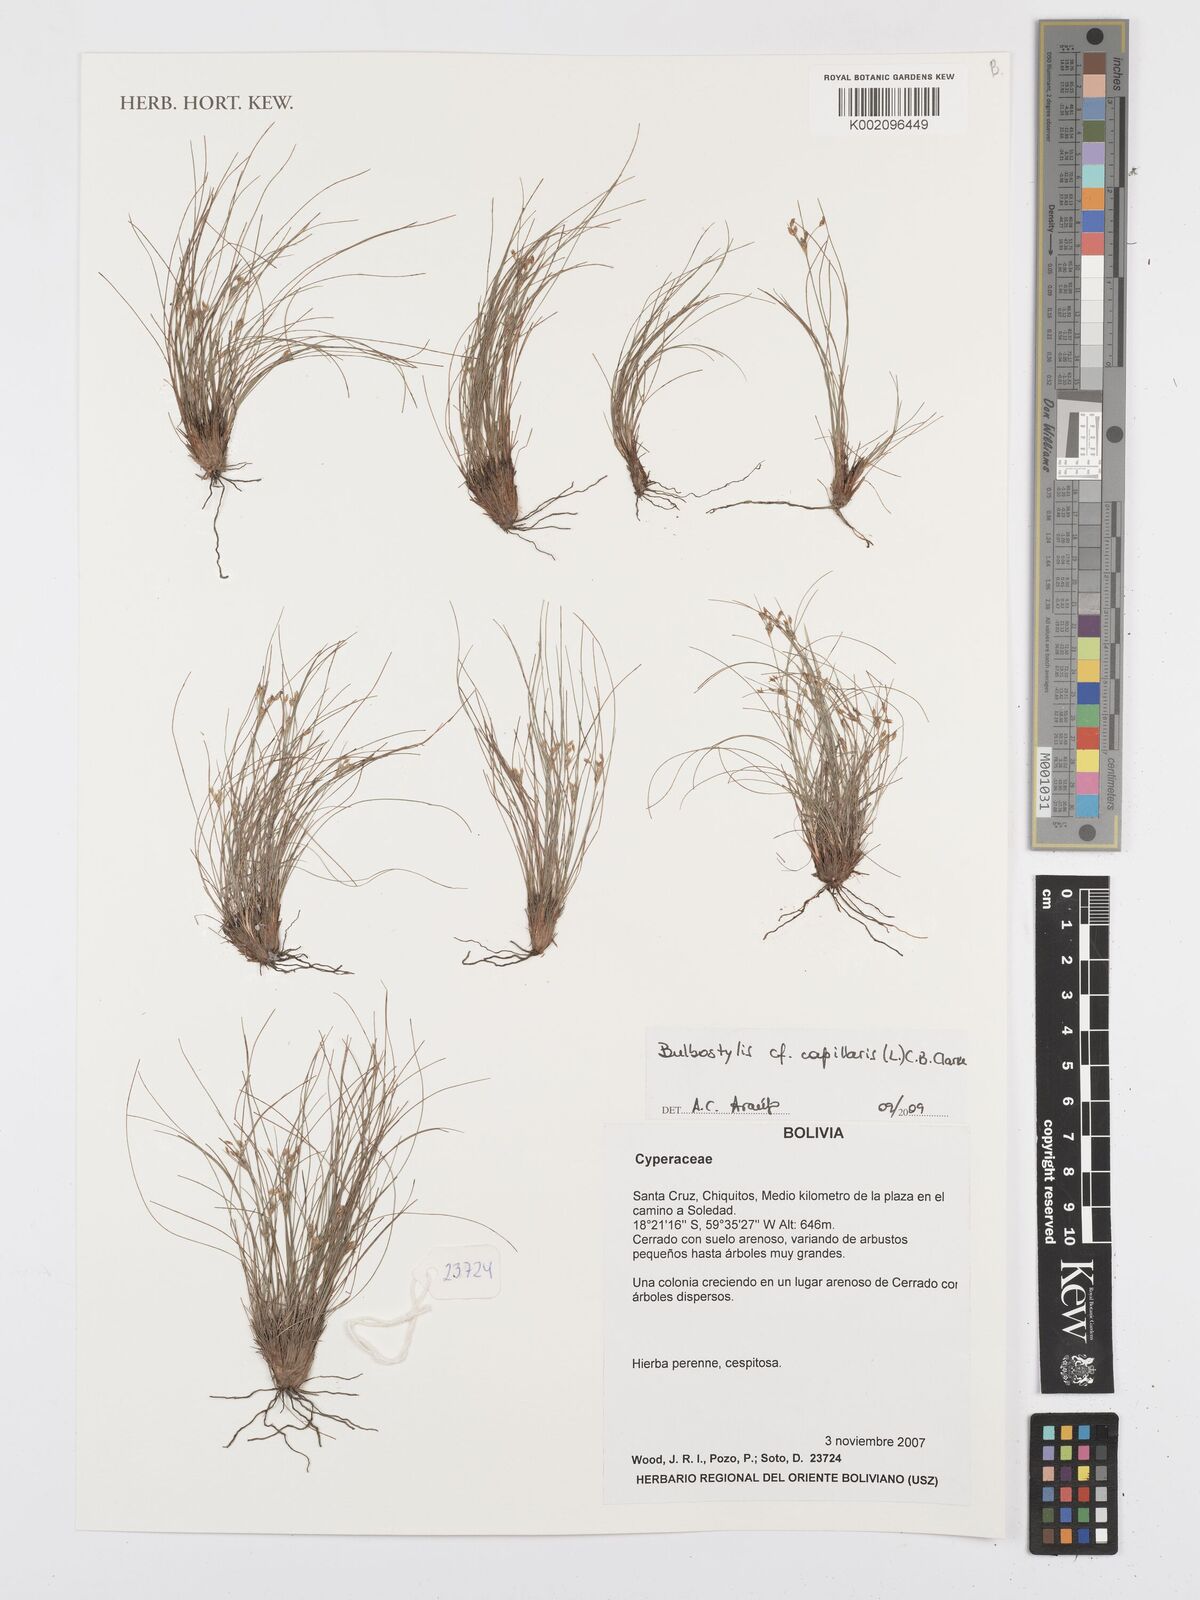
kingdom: Plantae
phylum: Tracheophyta
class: Liliopsida
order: Poales
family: Cyperaceae
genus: Bulbostylis
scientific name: Bulbostylis capillaris
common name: Densetuft hairsedge
